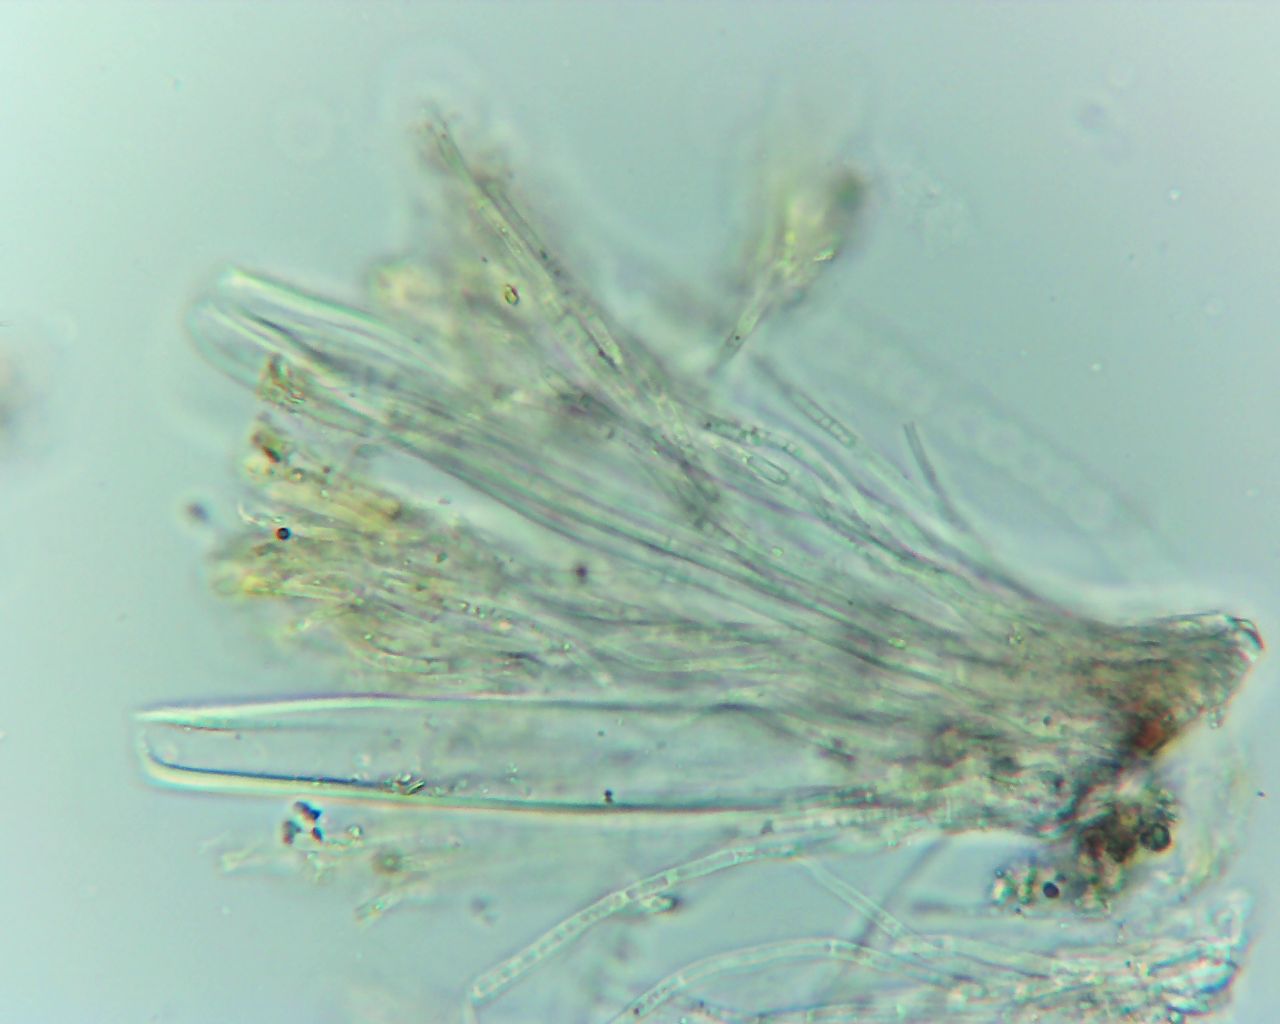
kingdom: Fungi
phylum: Ascomycota
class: Leotiomycetes
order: Helotiales
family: Dermateaceae
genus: Pezicula
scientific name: Pezicula ocellata
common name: tandet klyngeskive
